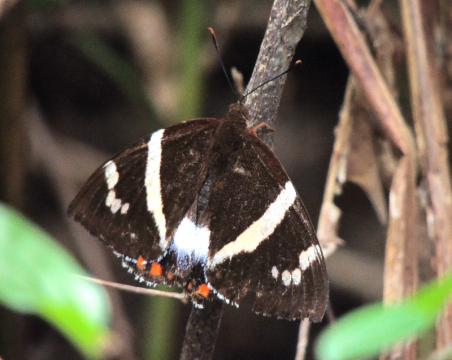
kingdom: Animalia
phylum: Arthropoda
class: Insecta
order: Lepidoptera
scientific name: Lepidoptera
